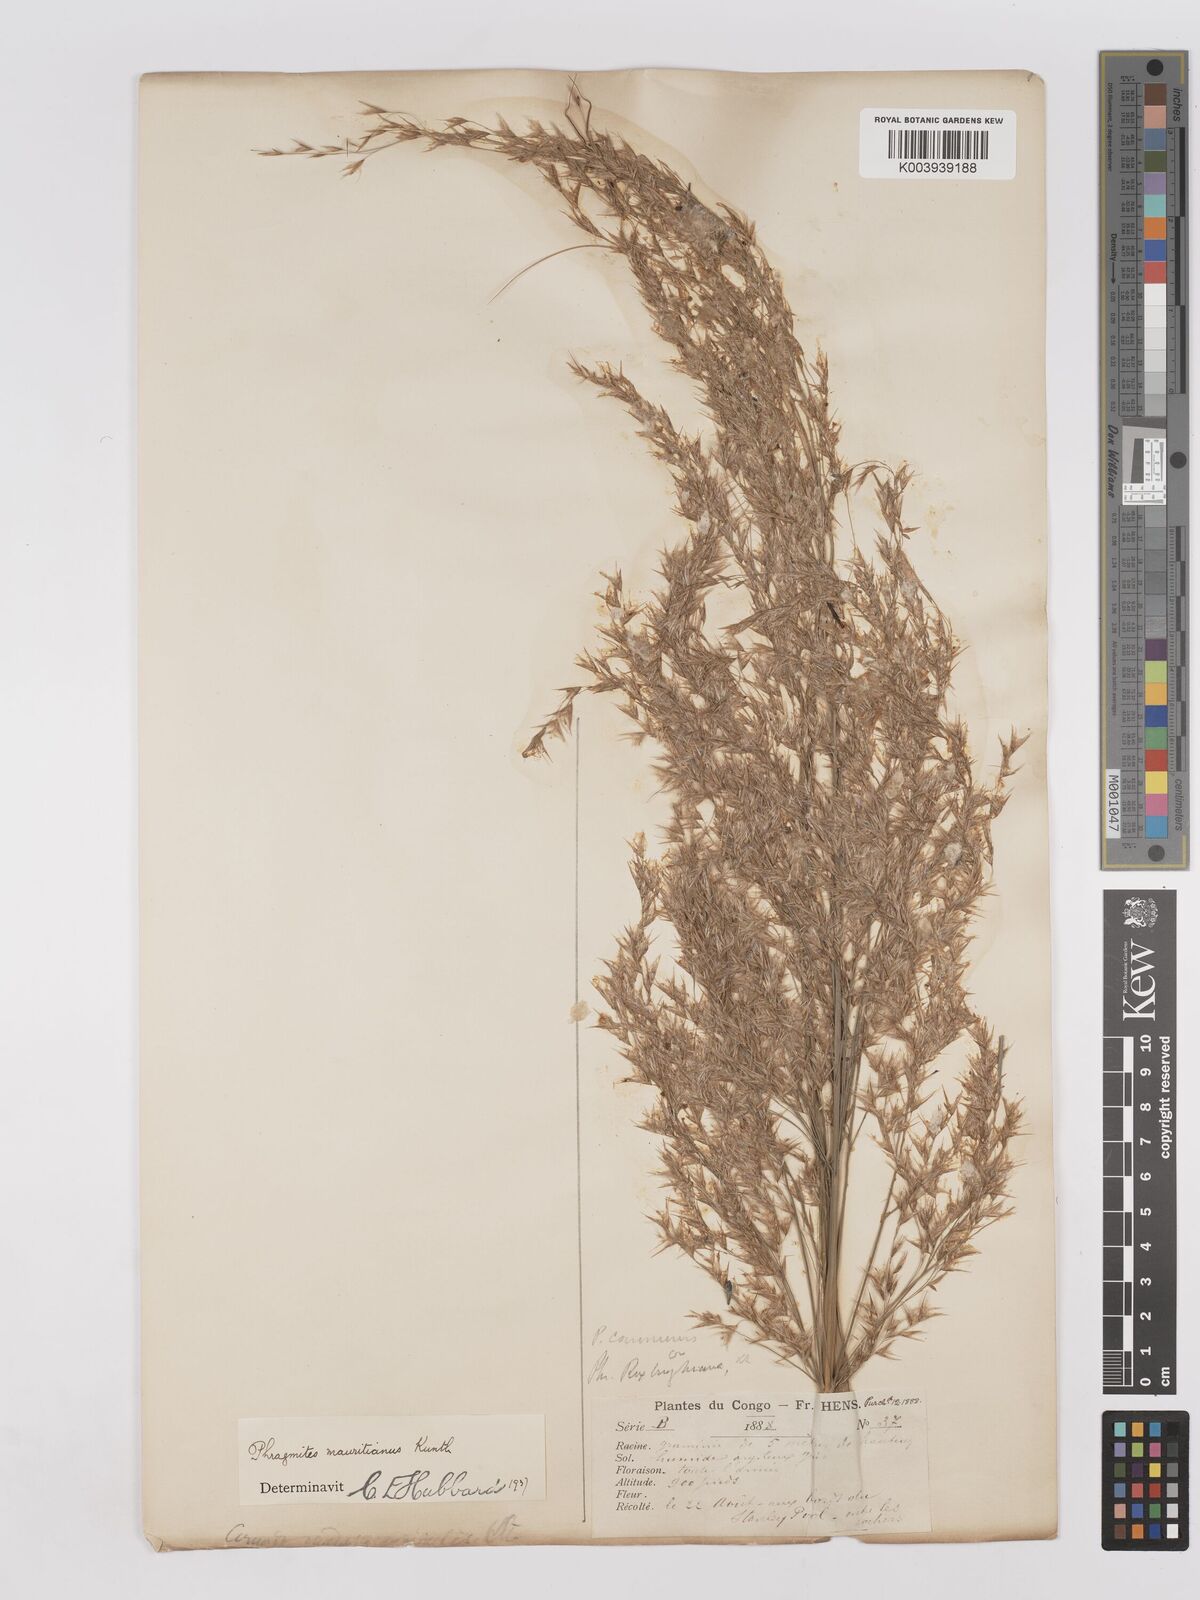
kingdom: Plantae
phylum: Tracheophyta
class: Liliopsida
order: Poales
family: Poaceae
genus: Phragmites
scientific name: Phragmites mauritianus
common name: Reed grass
